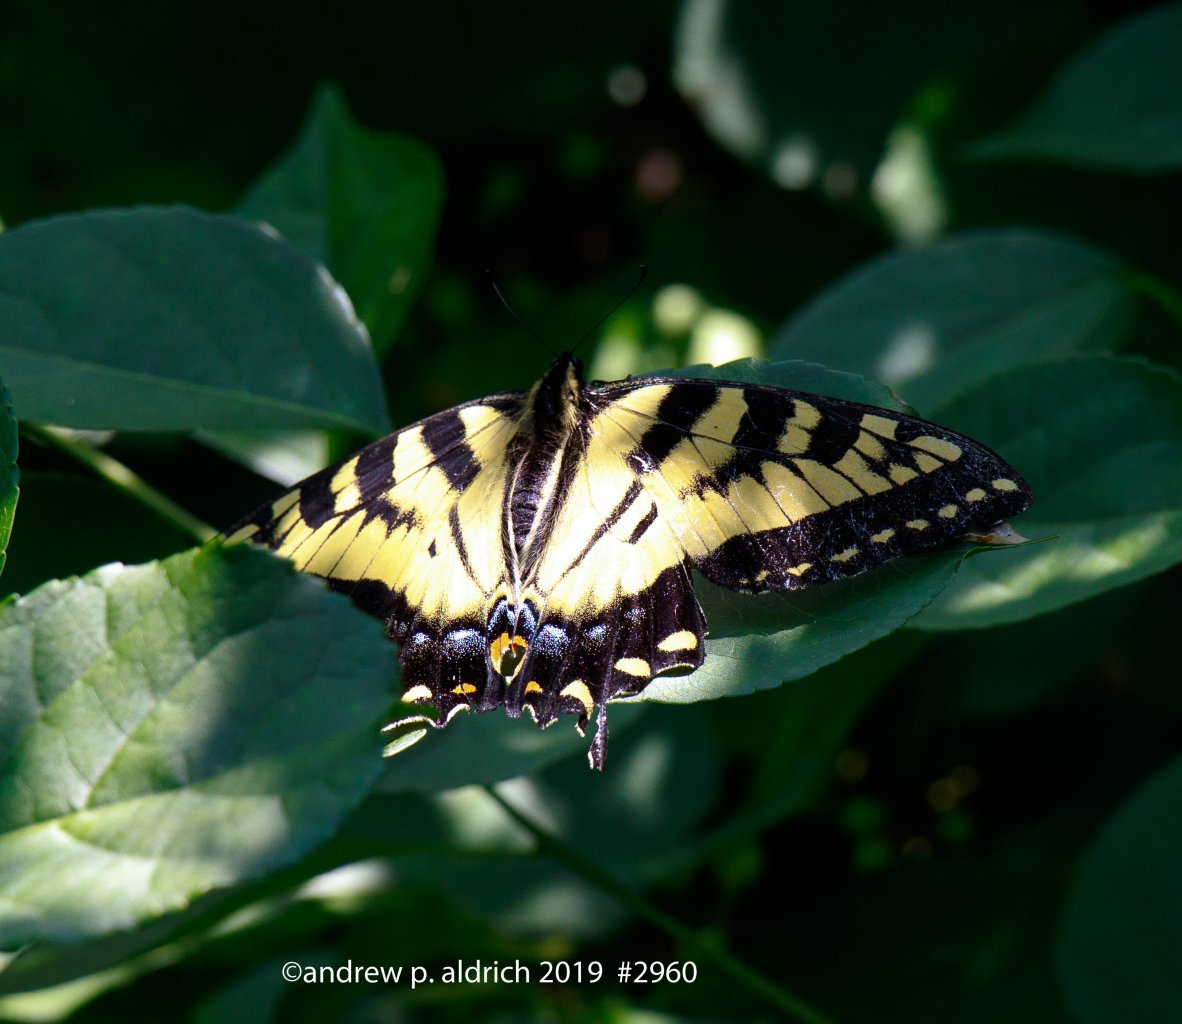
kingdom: Animalia
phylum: Arthropoda
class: Insecta
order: Lepidoptera
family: Papilionidae
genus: Pterourus
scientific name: Pterourus canadensis
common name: Canadian Tiger Swallowtail
